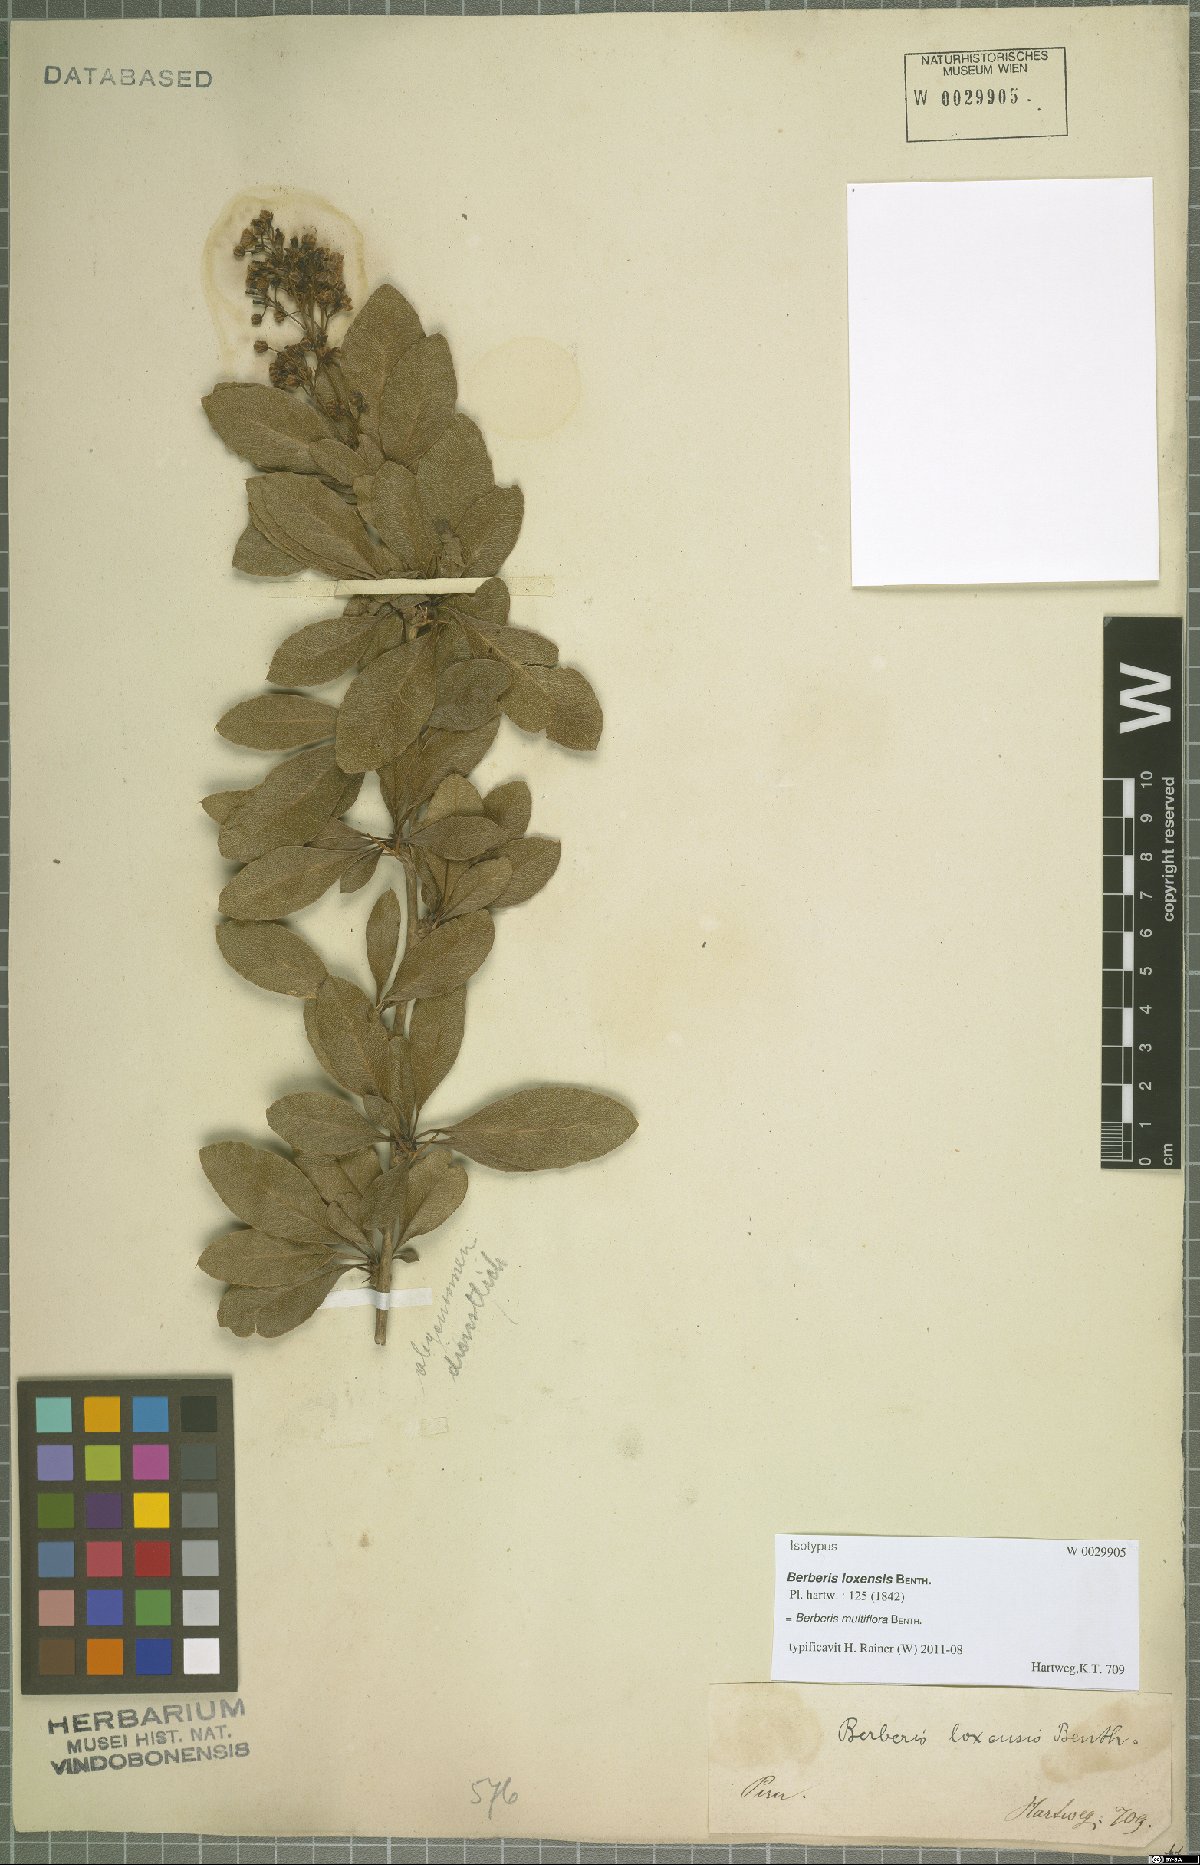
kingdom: Plantae
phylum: Tracheophyta
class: Magnoliopsida
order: Ranunculales
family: Berberidaceae
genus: Berberis
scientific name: Berberis multiflora
